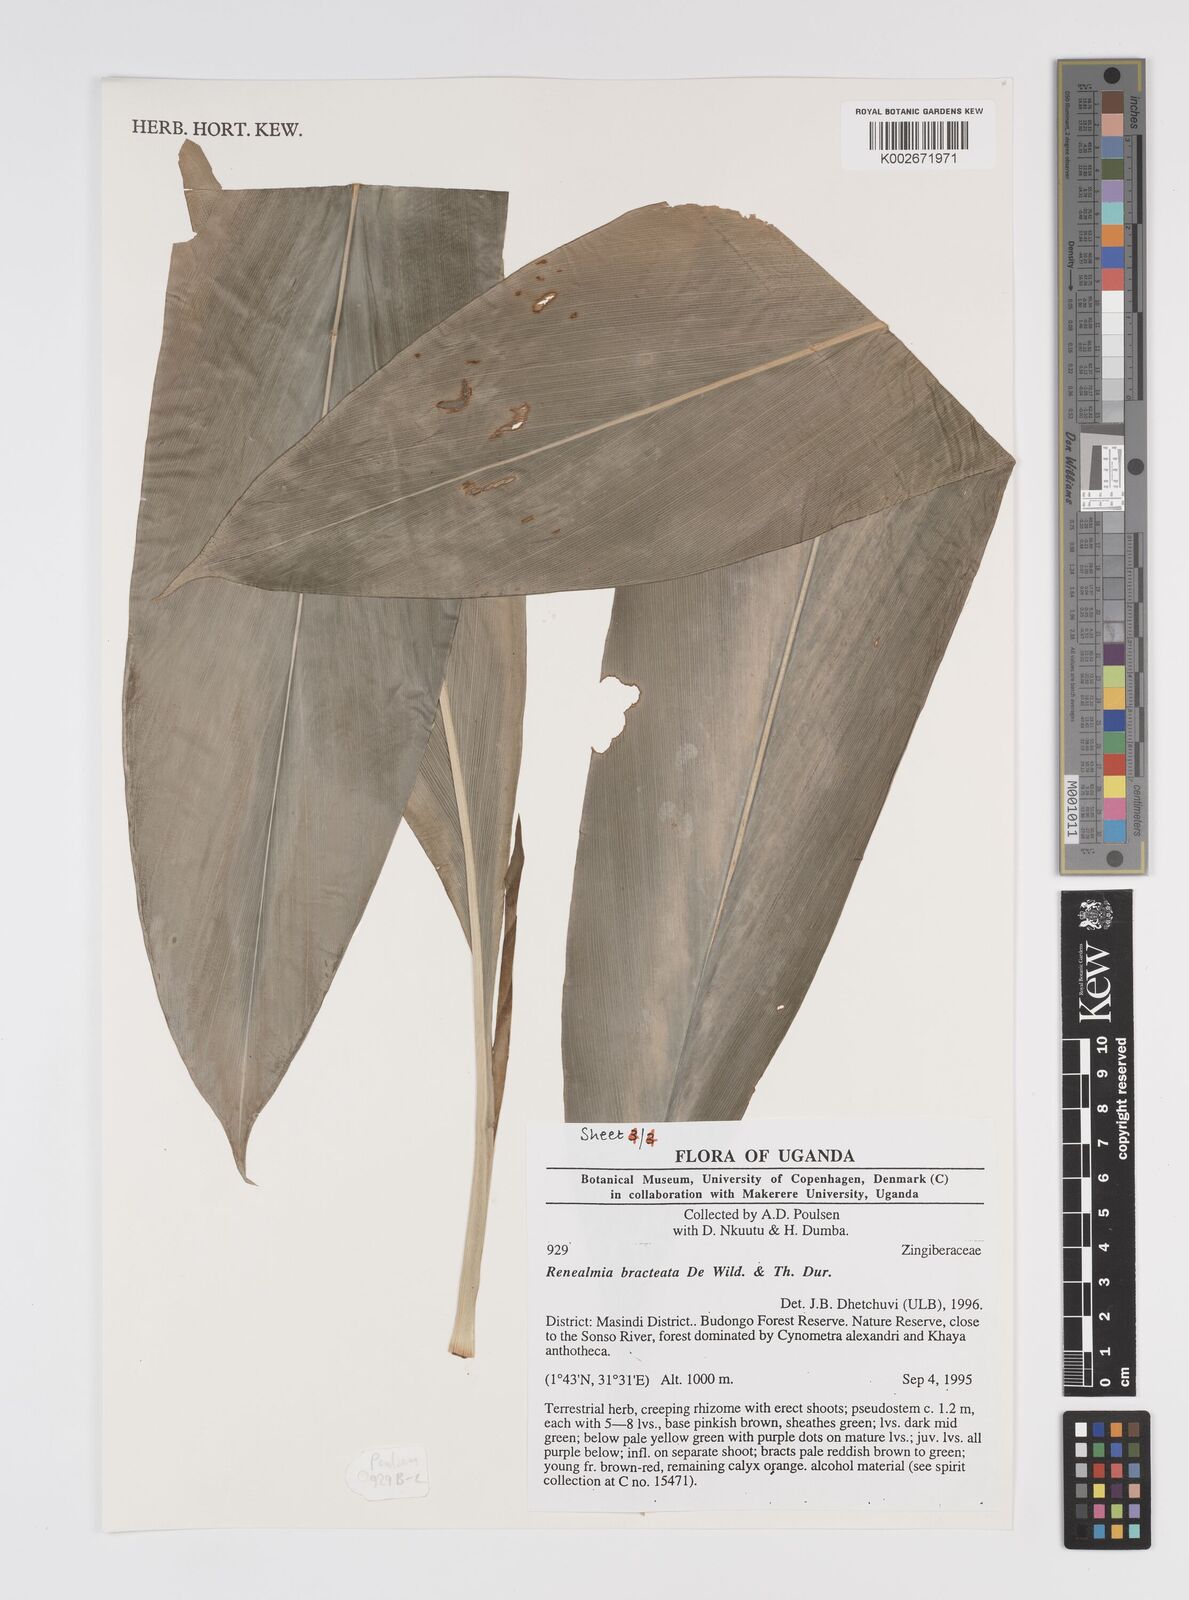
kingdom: Plantae
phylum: Tracheophyta
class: Liliopsida
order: Zingiberales
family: Zingiberaceae
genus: Renealmia
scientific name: Renealmia bracteata
